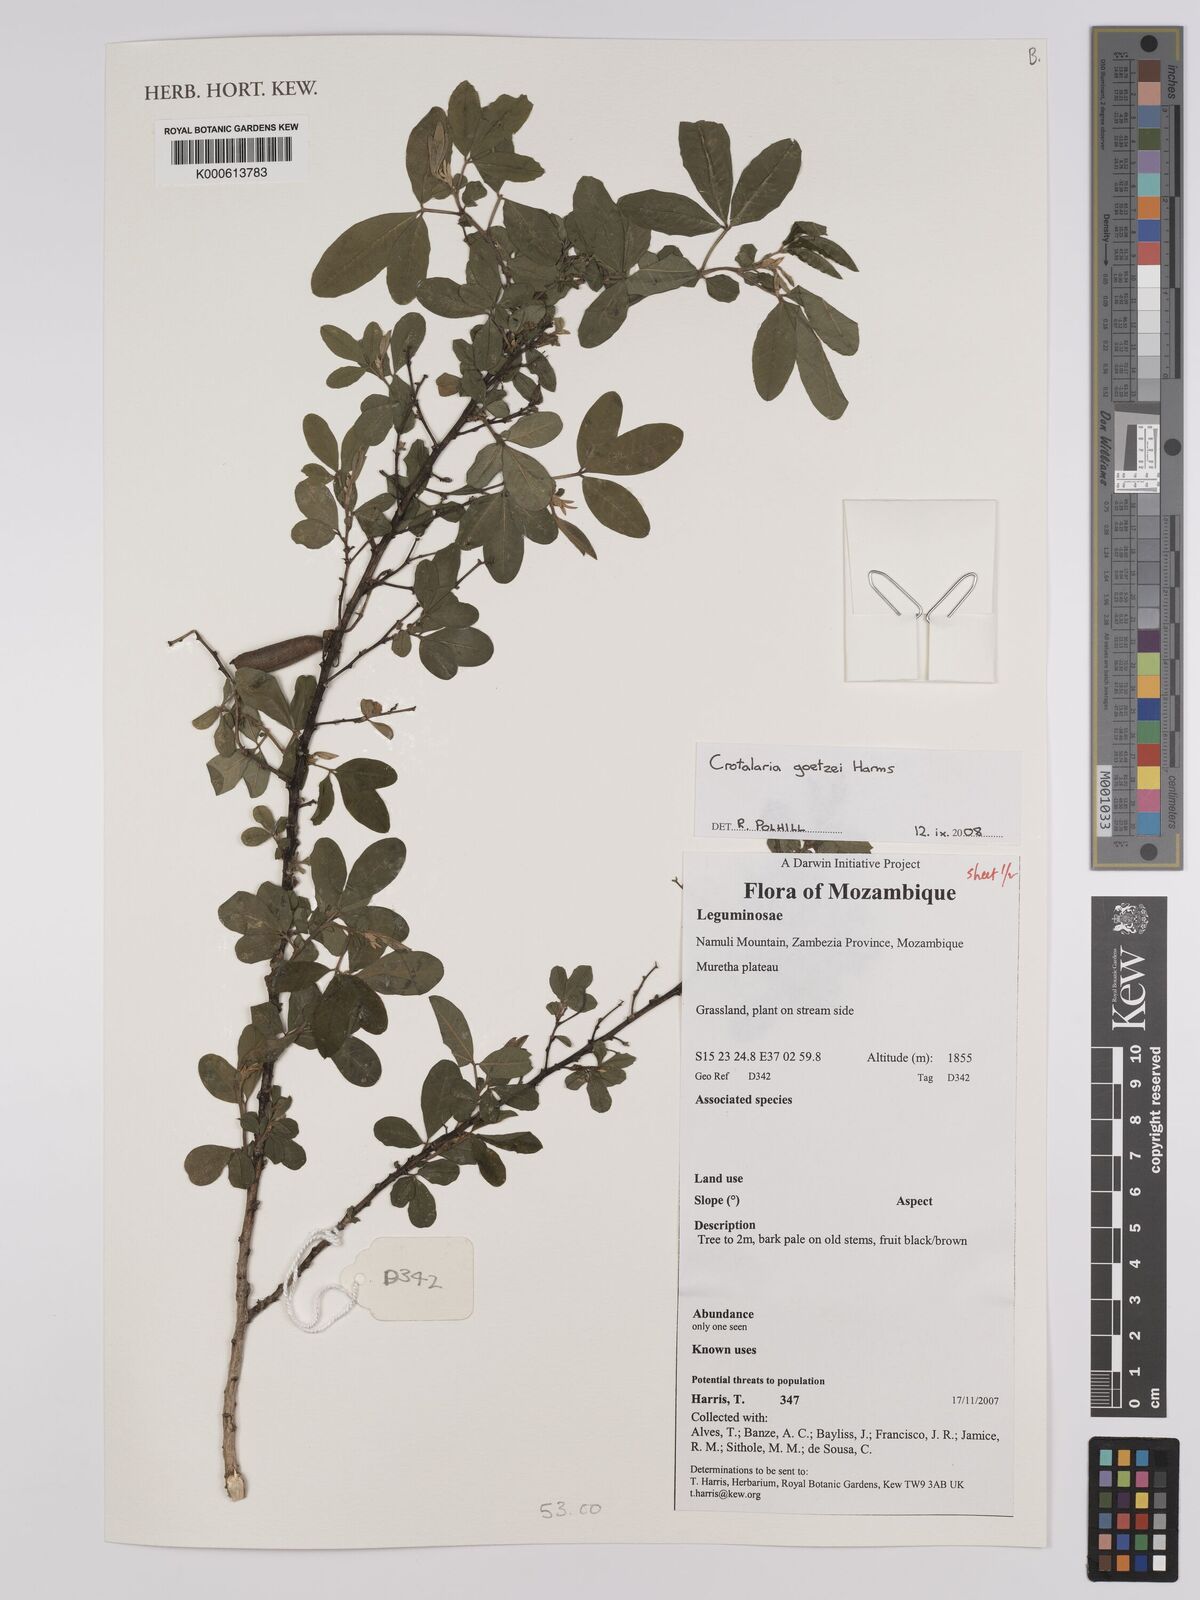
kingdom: Plantae
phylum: Tracheophyta
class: Magnoliopsida
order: Fabales
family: Fabaceae
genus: Crotalaria
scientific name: Crotalaria goetzei
